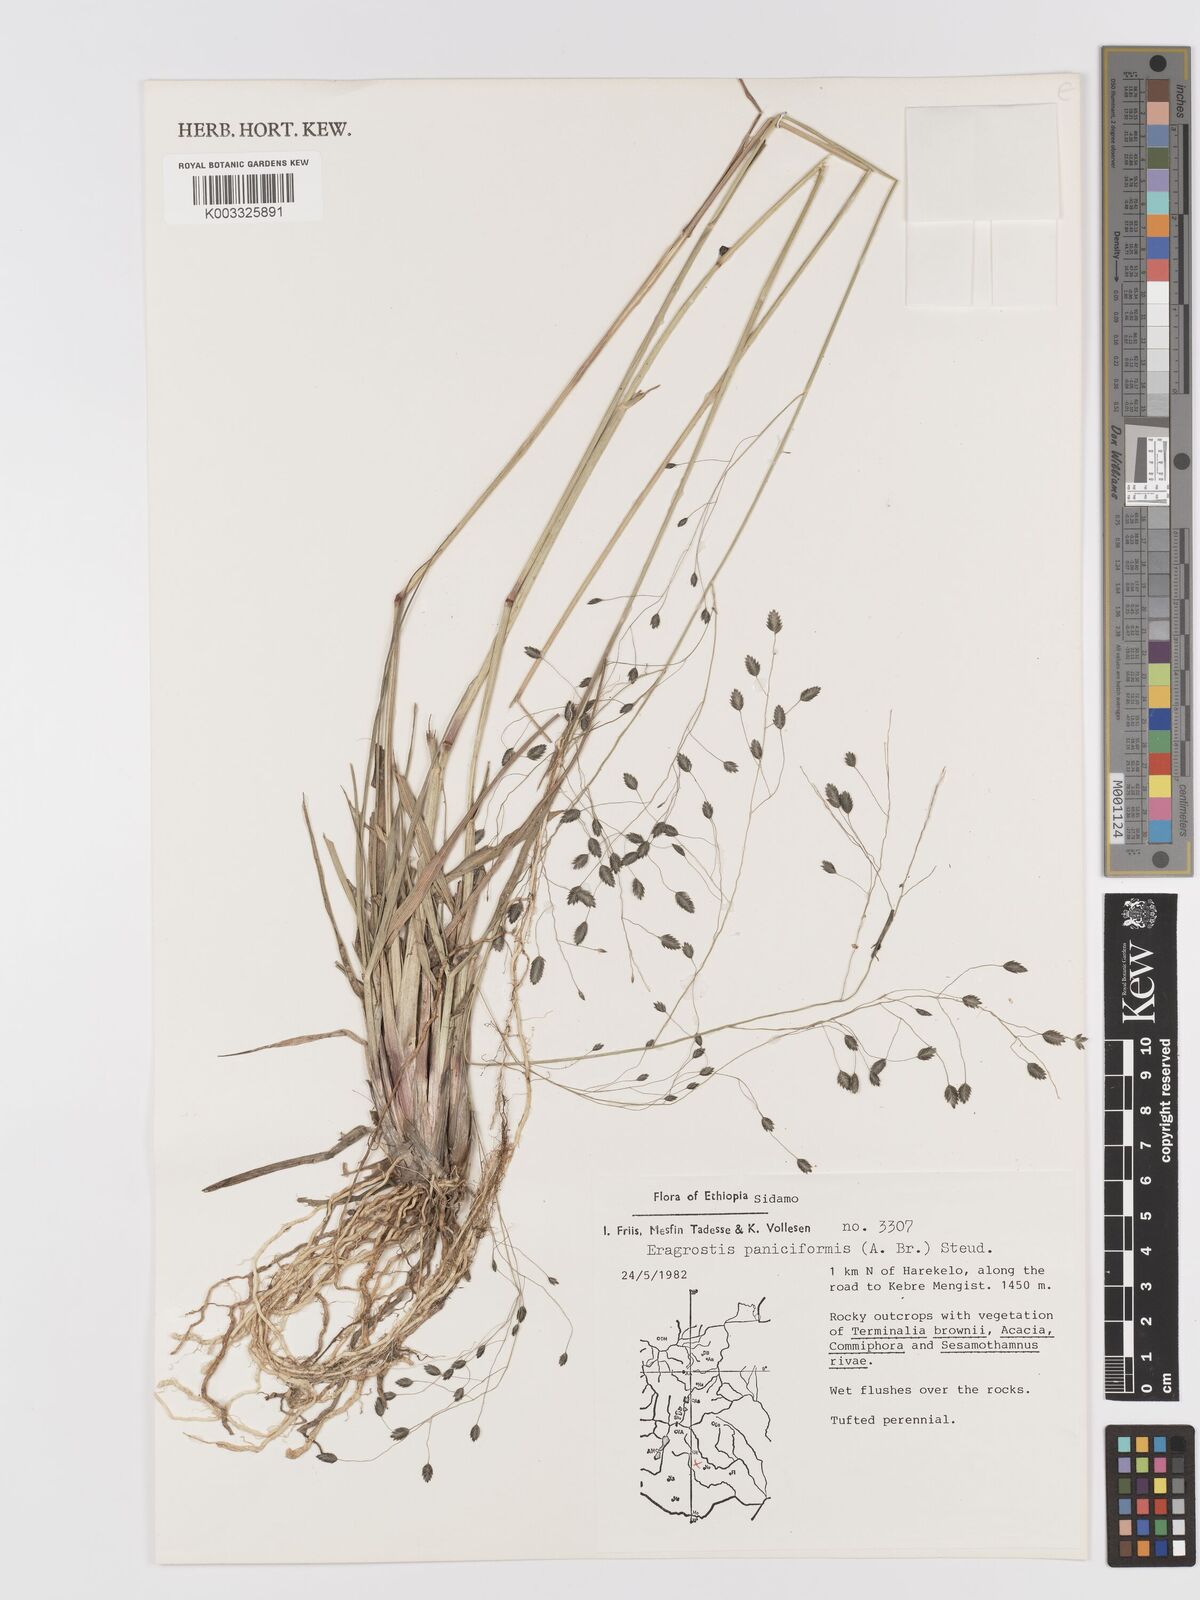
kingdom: Plantae
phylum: Tracheophyta
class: Liliopsida
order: Poales
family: Poaceae
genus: Eragrostis
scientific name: Eragrostis paniciformis
